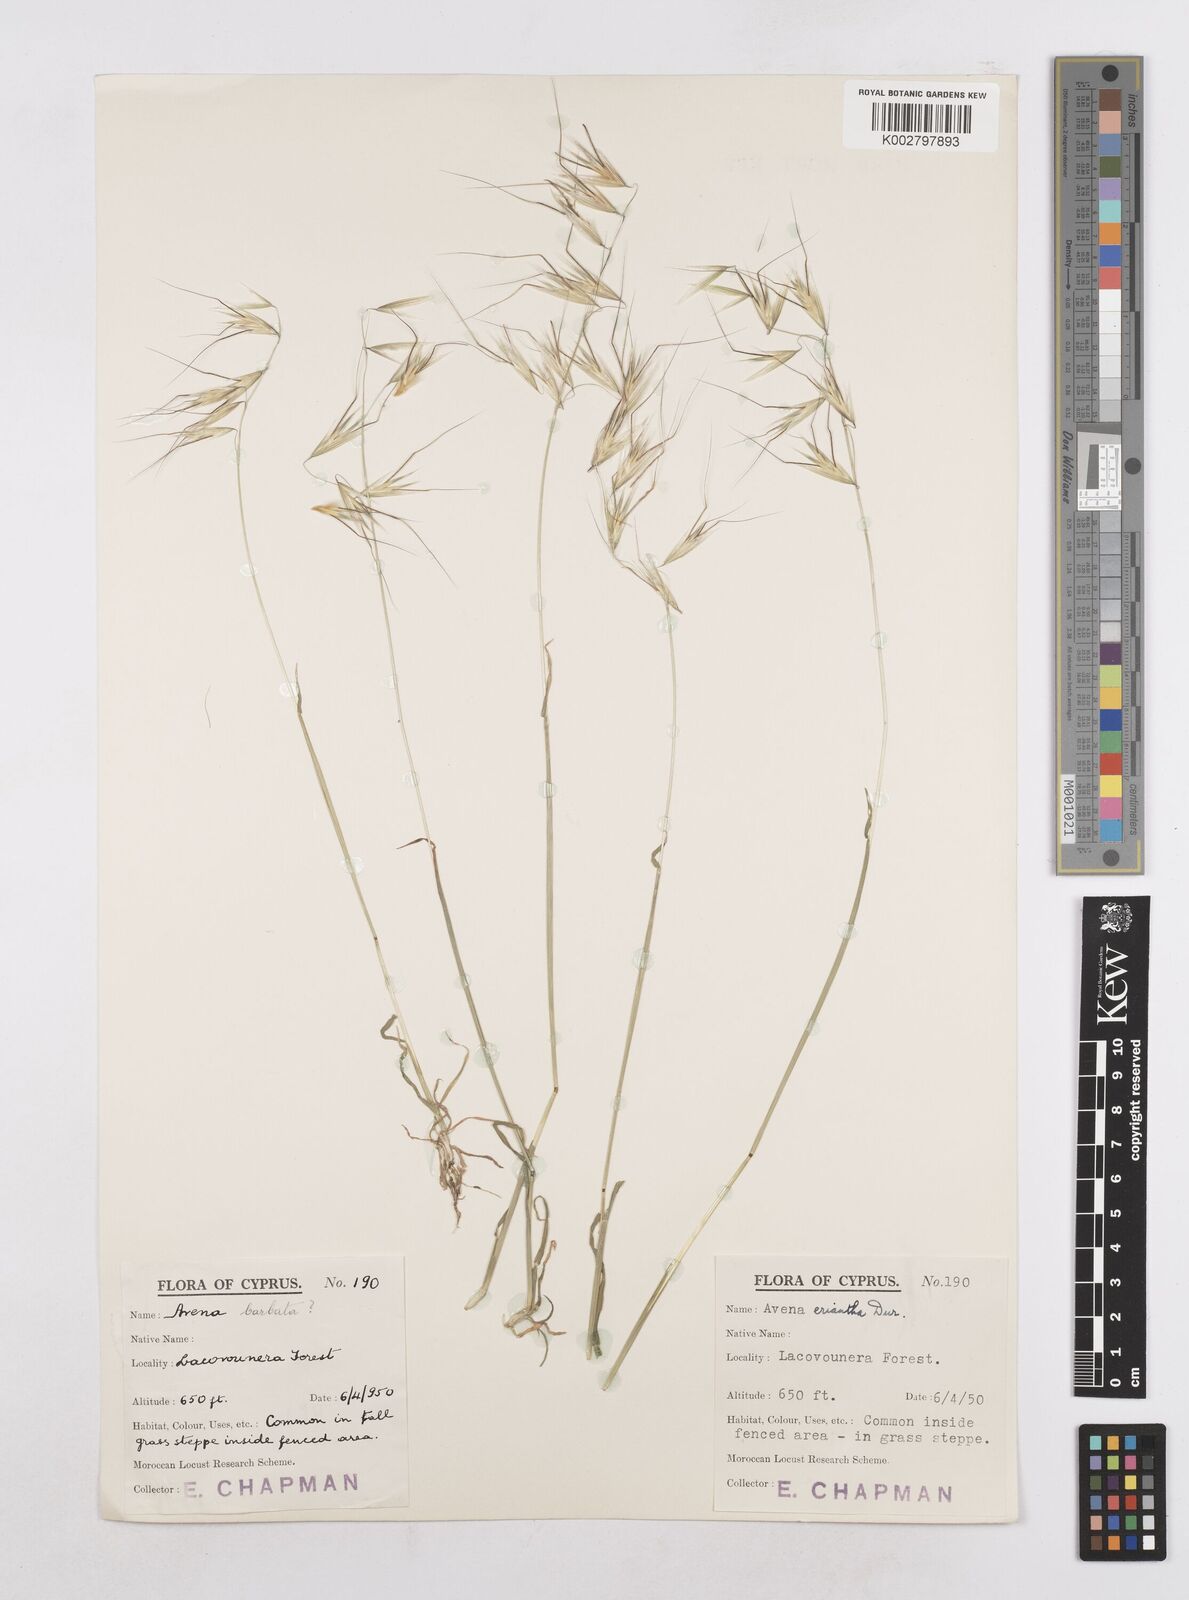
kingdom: Plantae
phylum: Tracheophyta
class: Liliopsida
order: Poales
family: Poaceae
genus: Avena
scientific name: Avena eriantha
